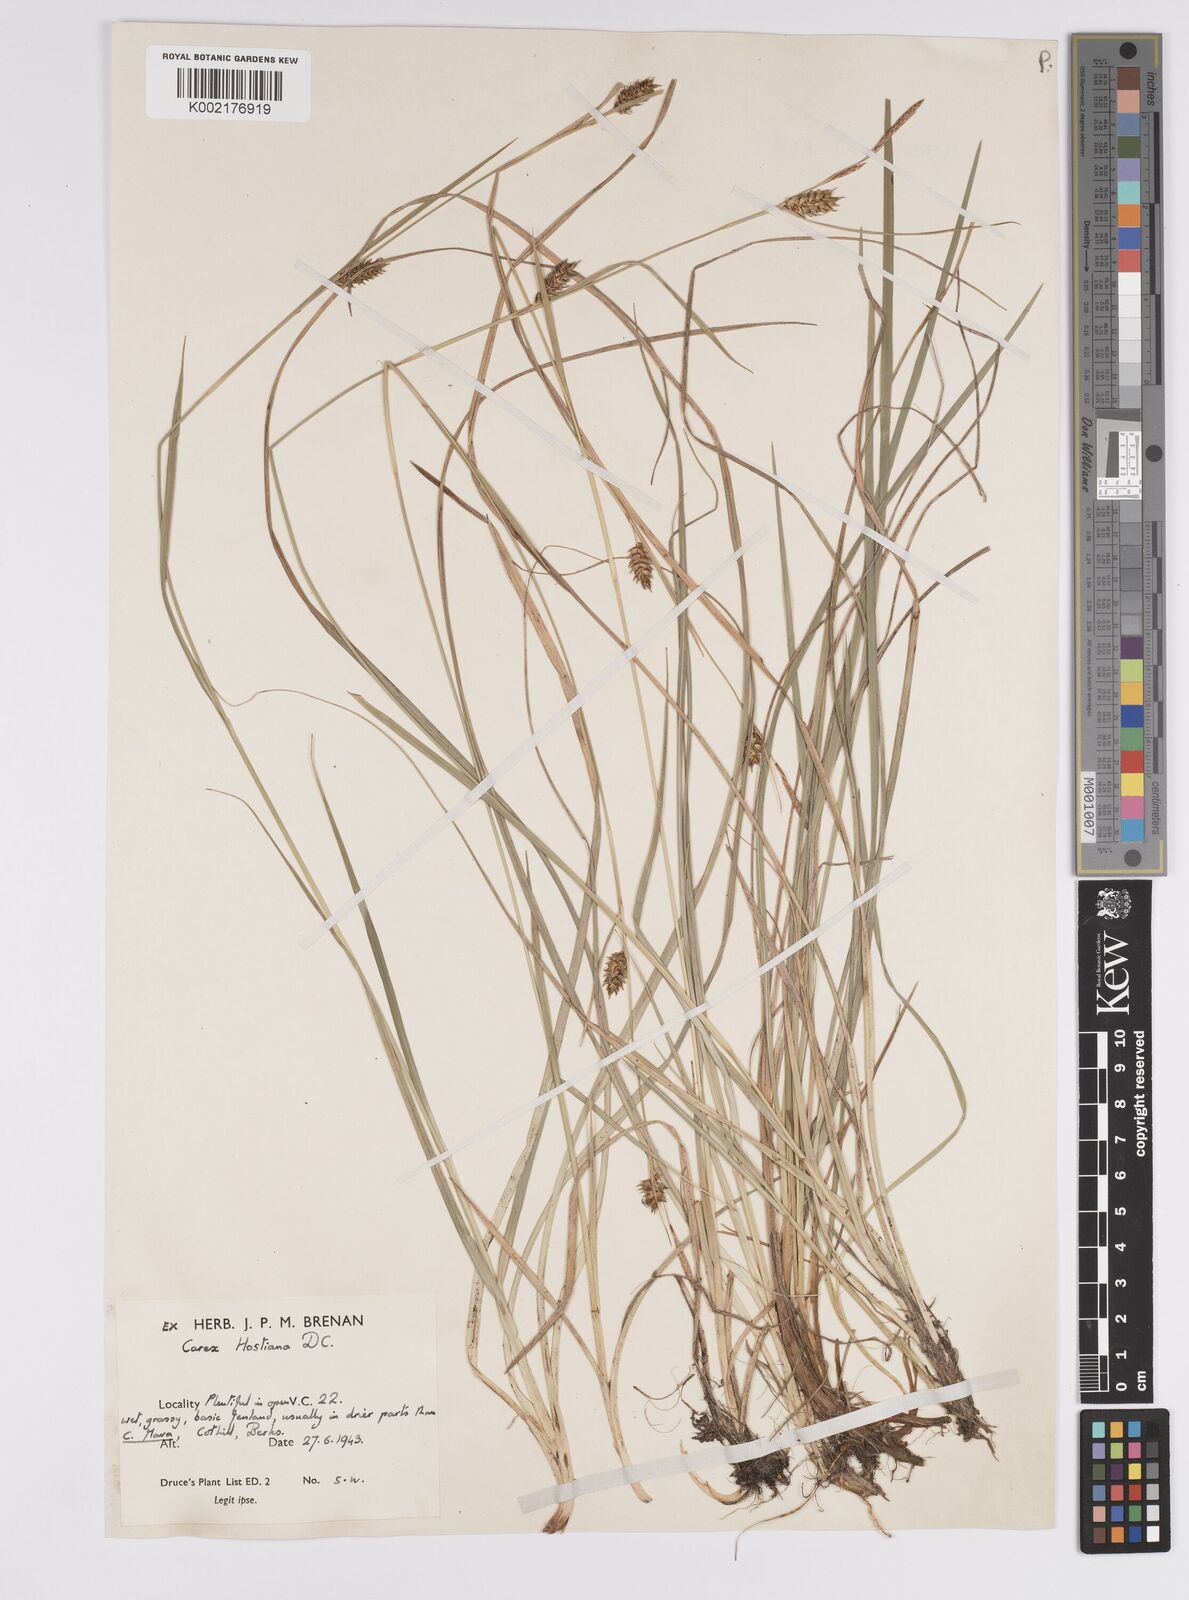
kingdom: Plantae
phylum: Tracheophyta
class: Liliopsida
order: Poales
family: Cyperaceae
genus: Carex
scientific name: Carex hostiana
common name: Tawny sedge
